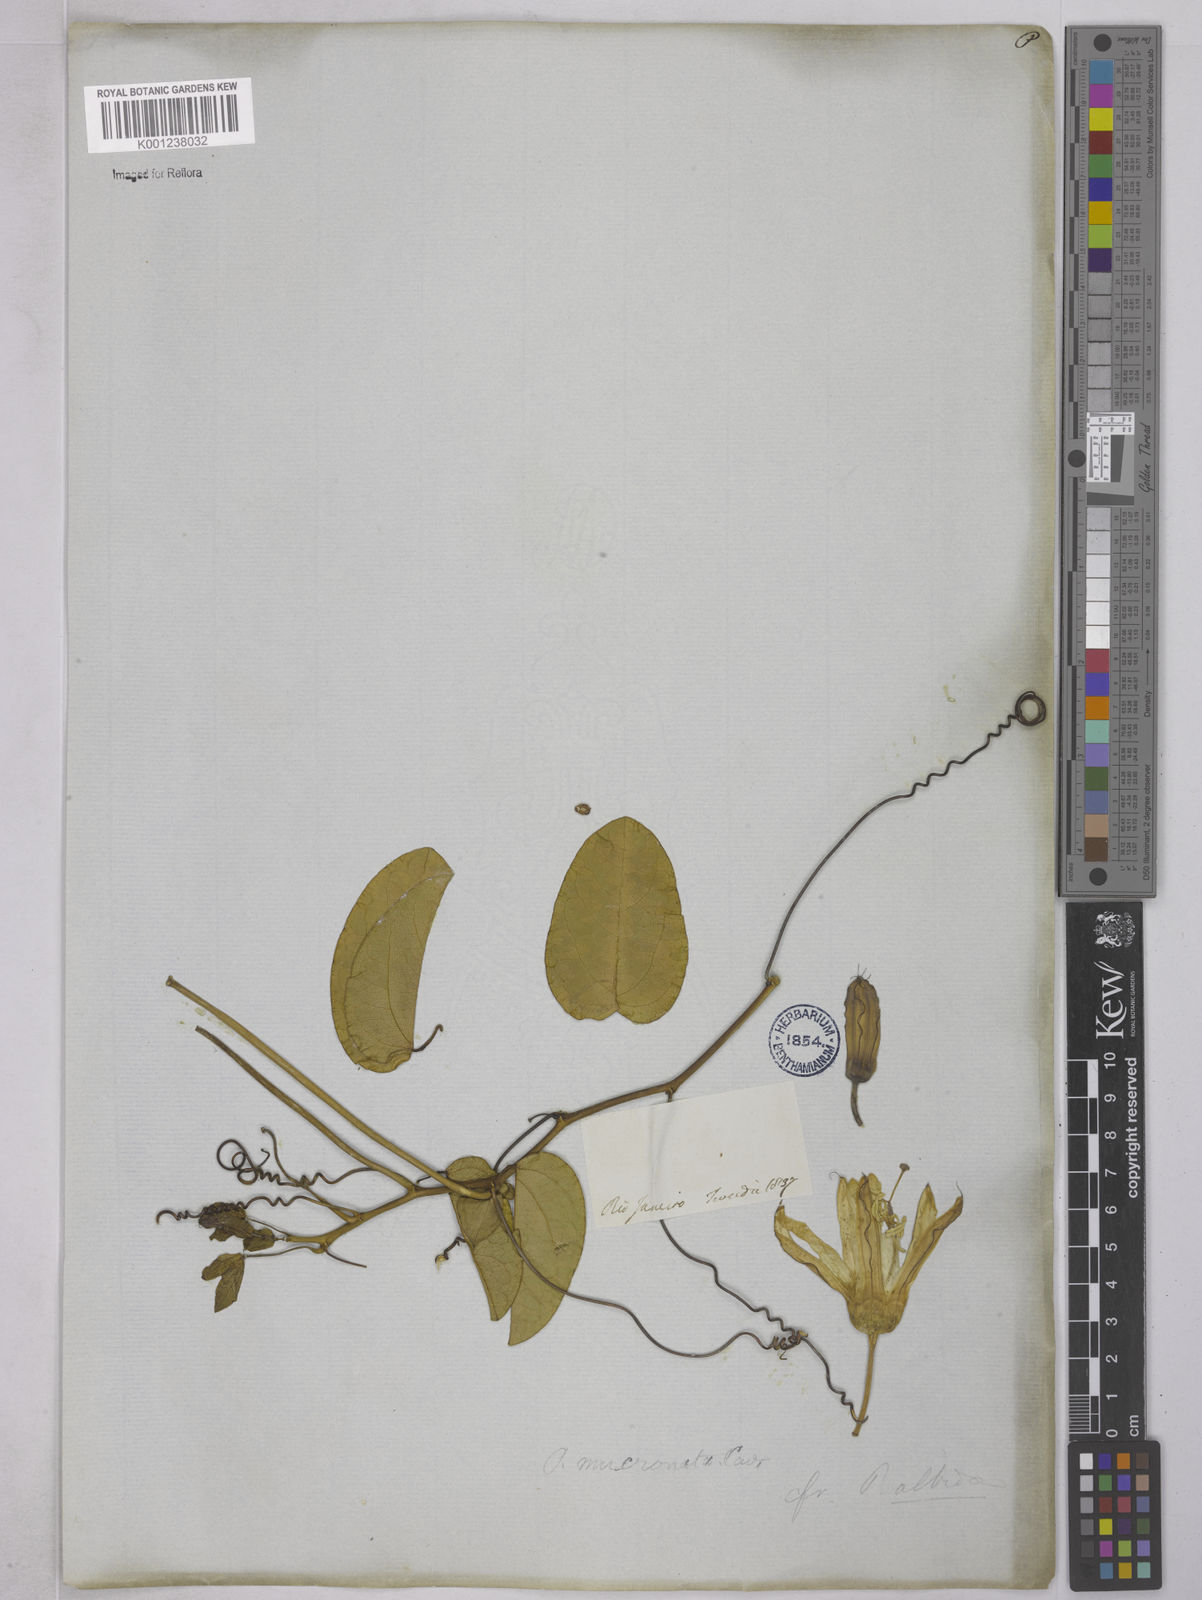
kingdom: Plantae
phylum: Tracheophyta
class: Magnoliopsida
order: Malpighiales
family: Passifloraceae
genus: Passiflora
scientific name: Passiflora mucronata
